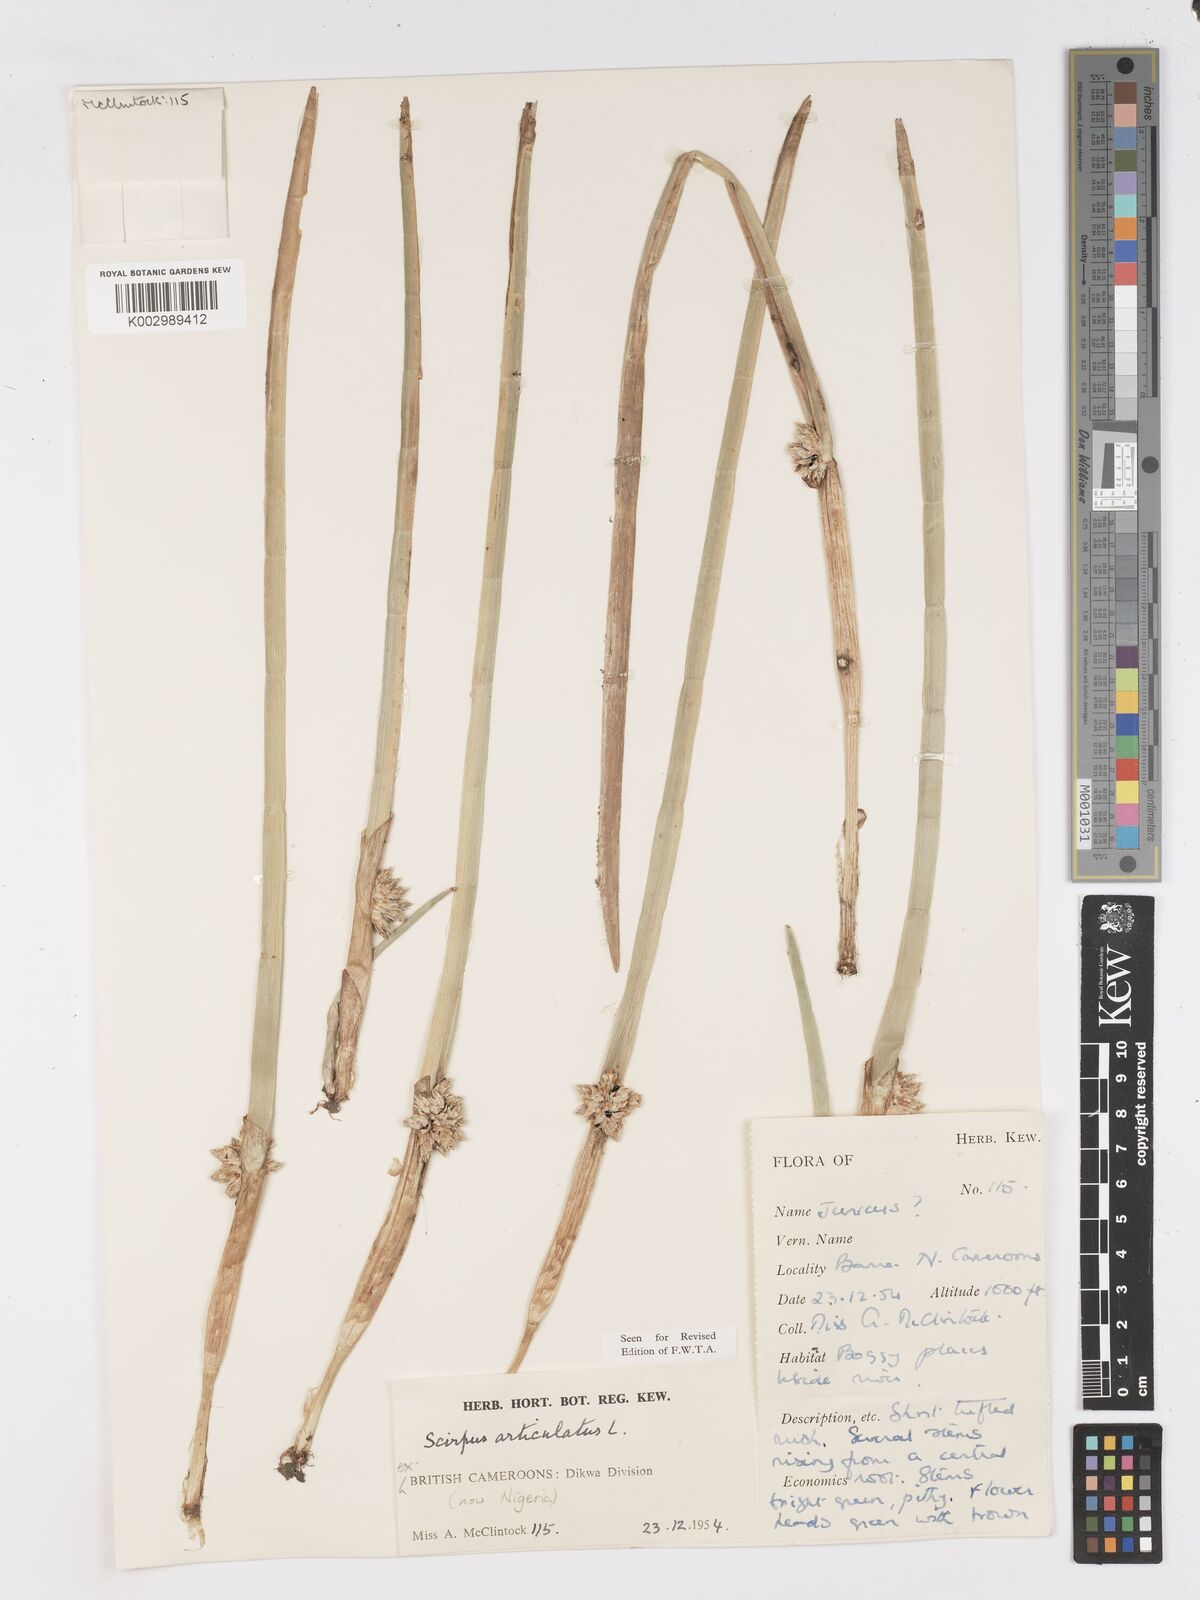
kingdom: Plantae
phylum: Tracheophyta
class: Liliopsida
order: Poales
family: Cyperaceae
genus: Schoenoplectiella
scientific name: Schoenoplectiella articulata
